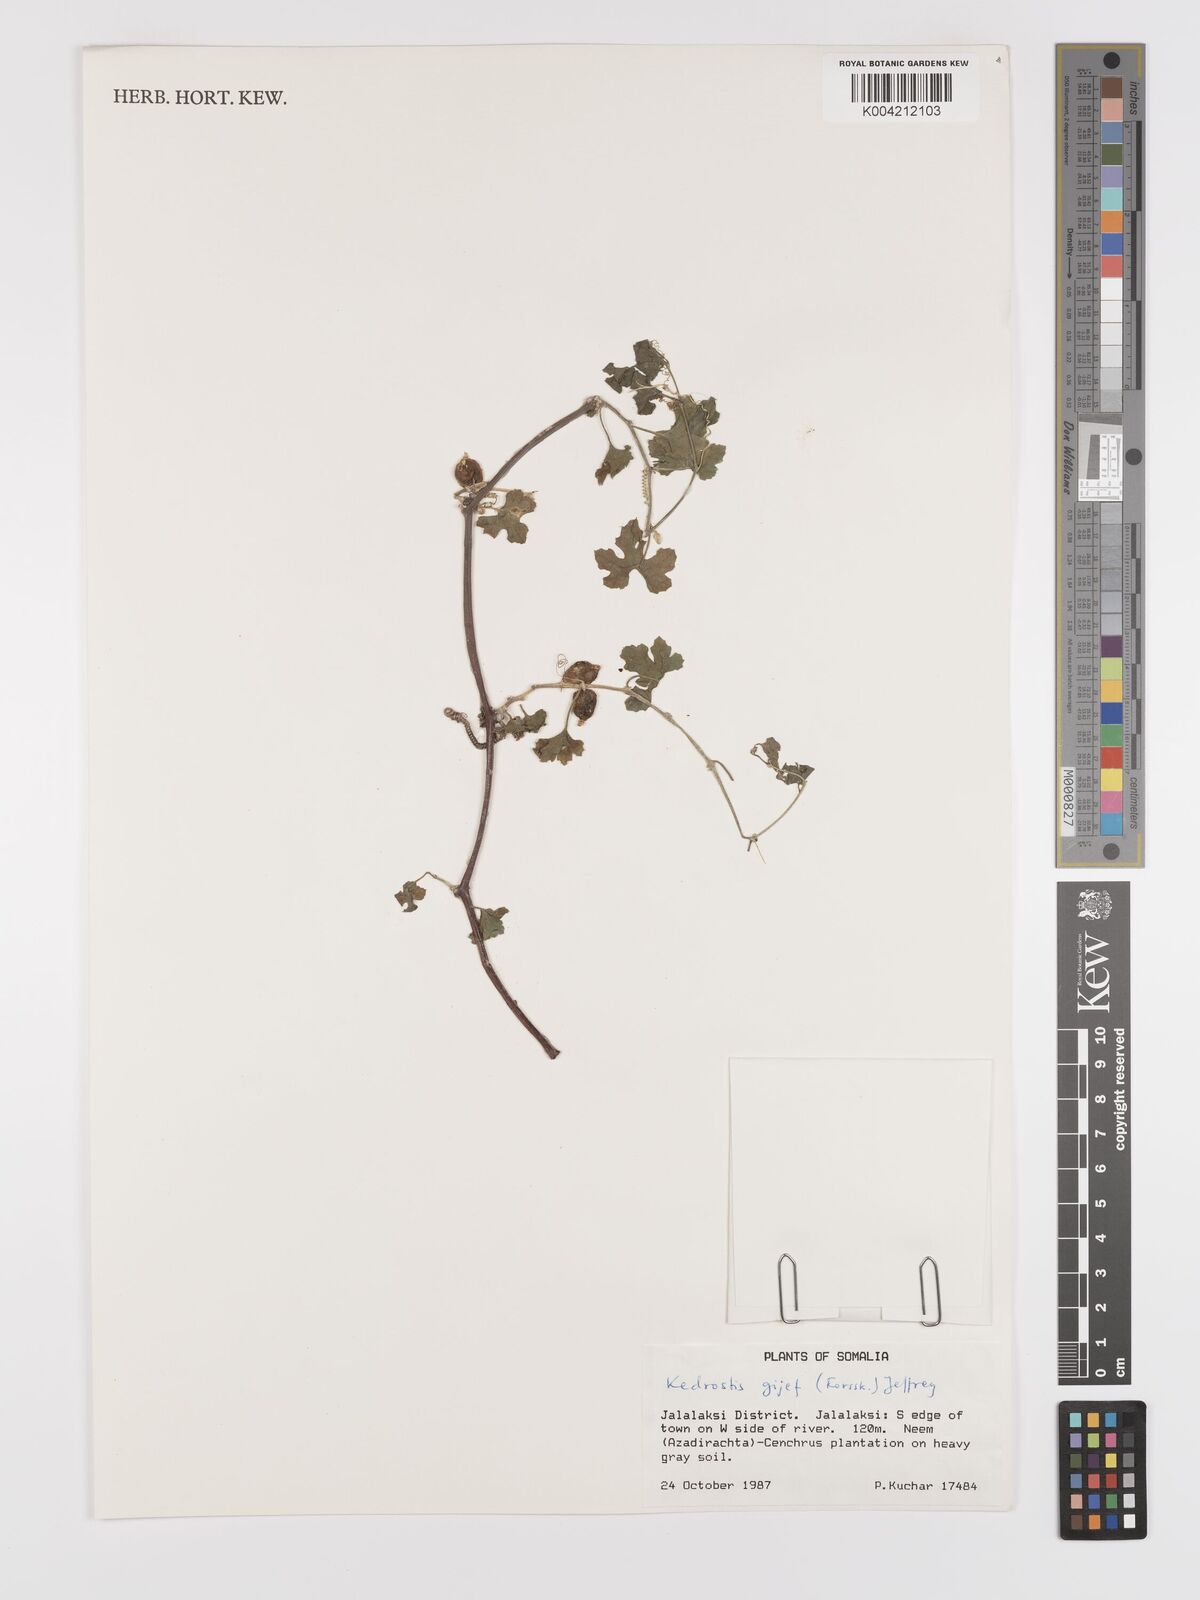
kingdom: Plantae
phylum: Tracheophyta
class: Magnoliopsida
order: Cucurbitales
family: Cucurbitaceae
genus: Kedrostis
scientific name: Kedrostis gijef
